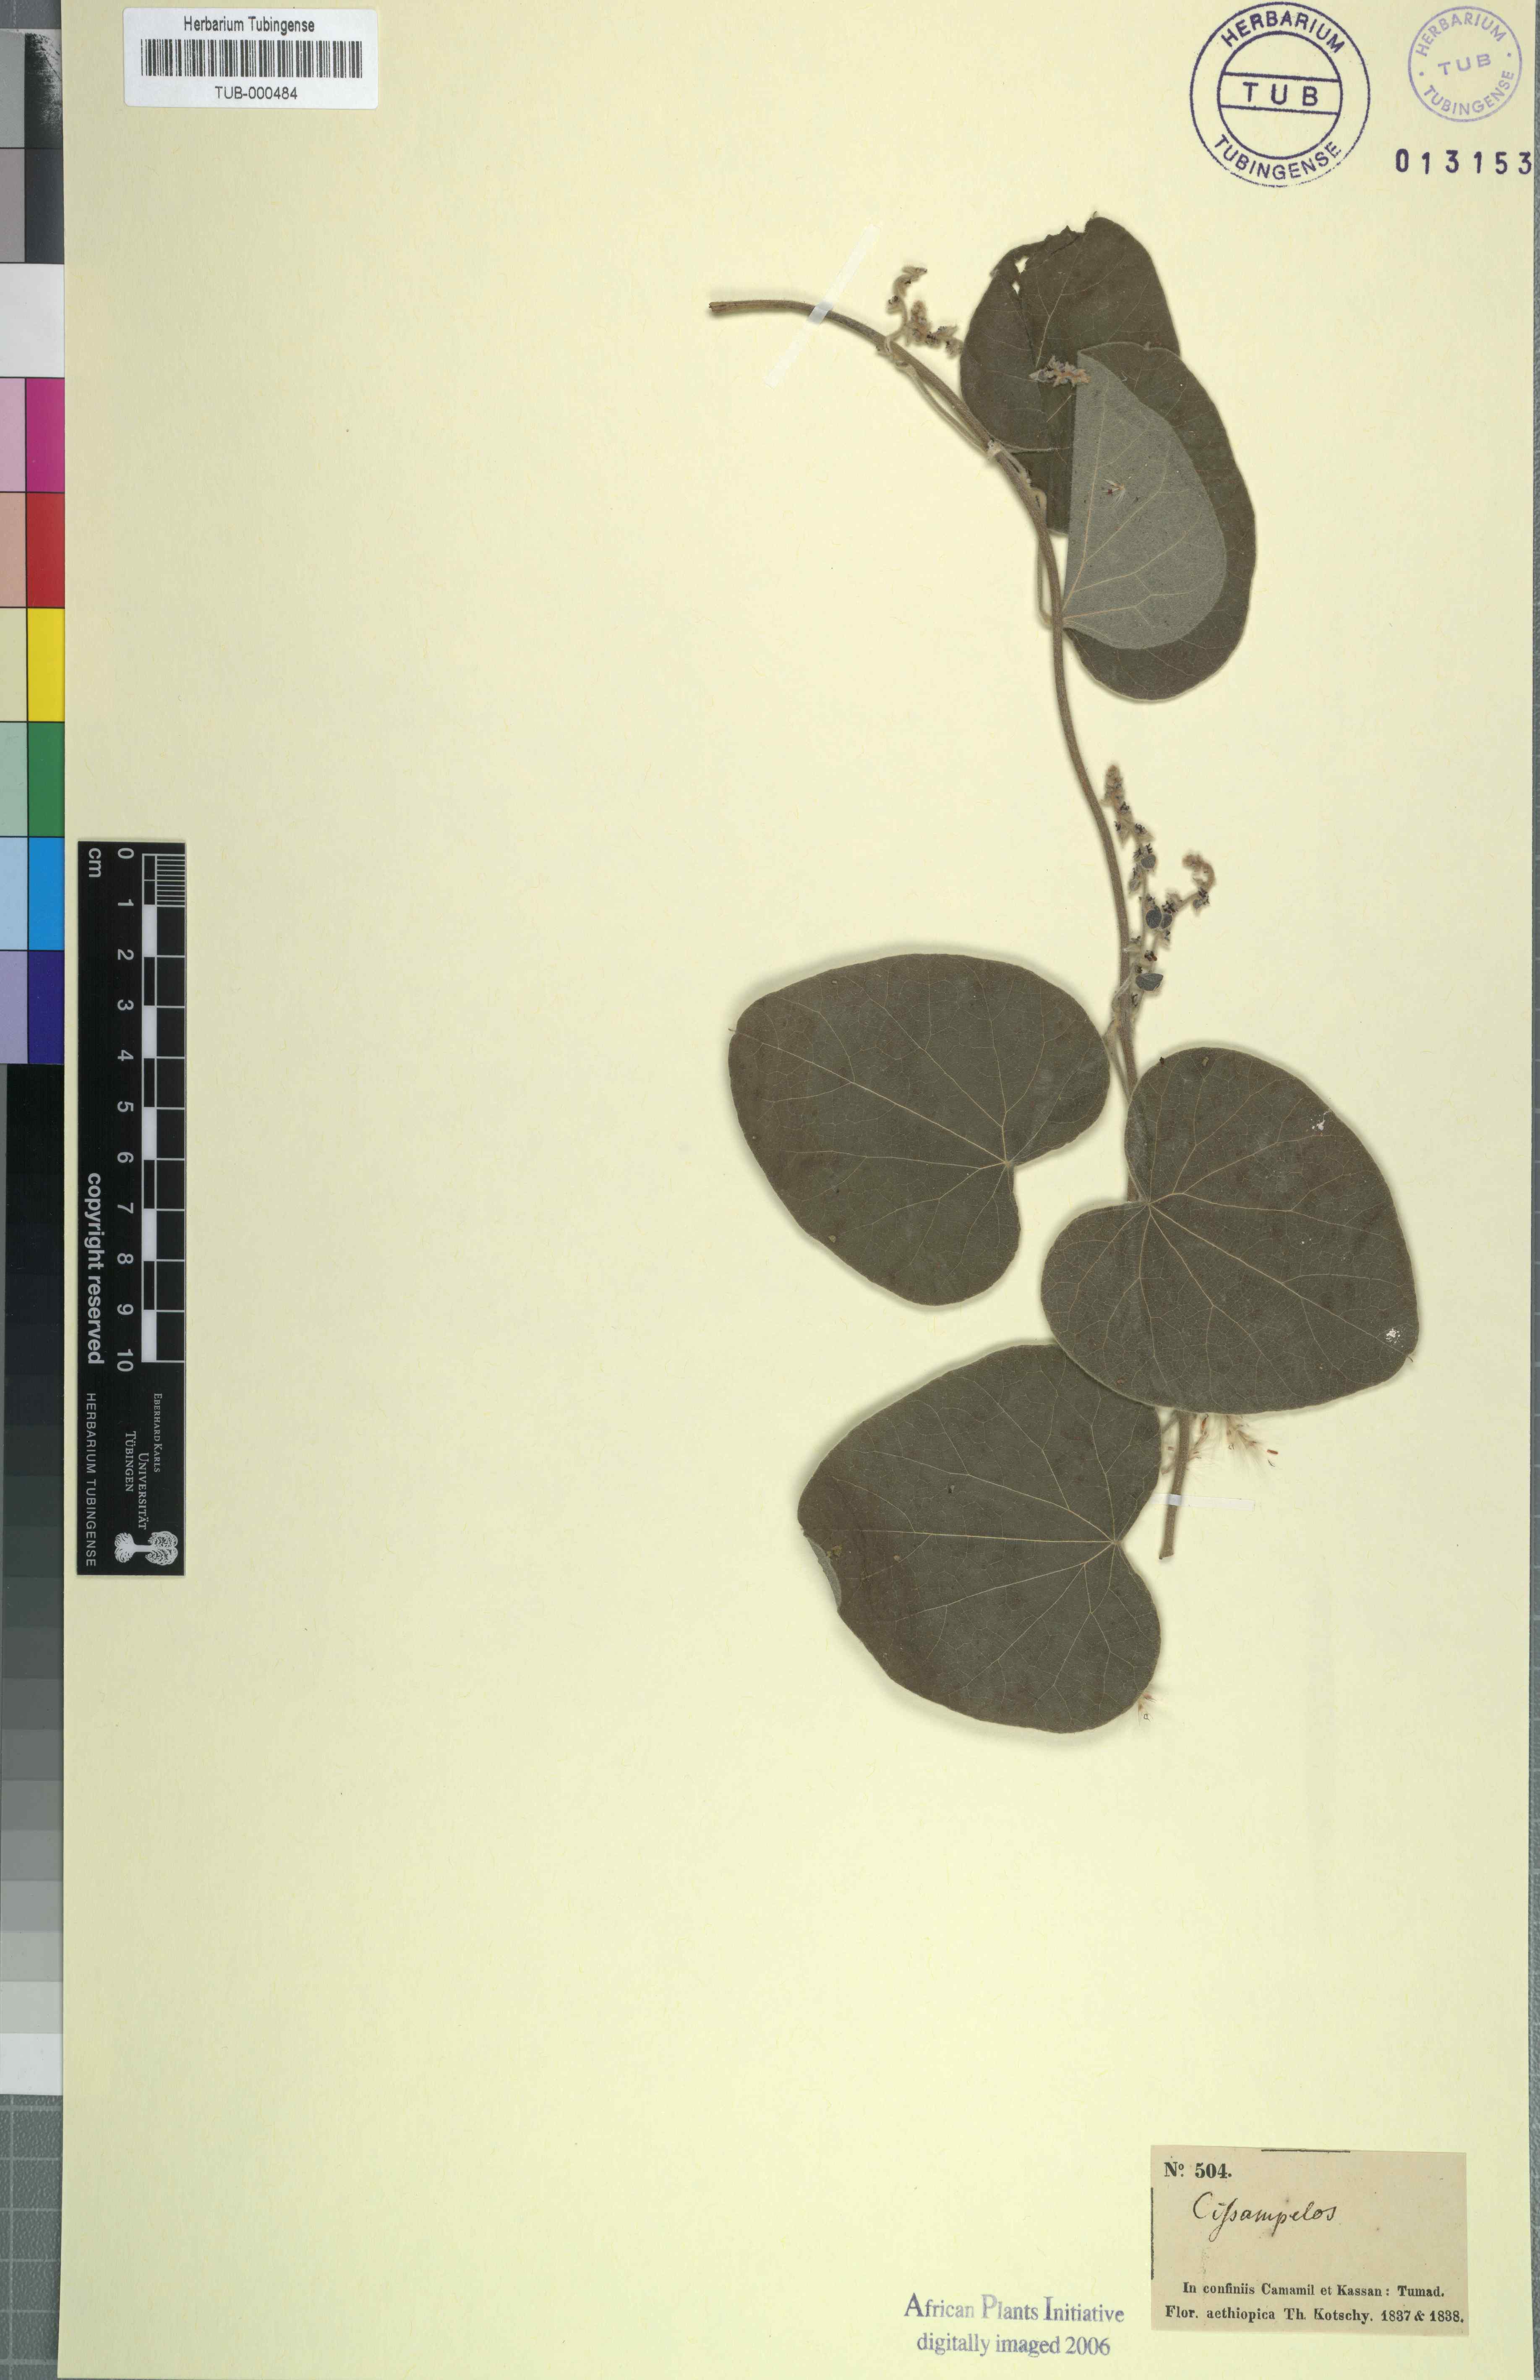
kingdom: Plantae
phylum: Tracheophyta
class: Magnoliopsida
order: Ranunculales
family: Menispermaceae
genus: Cissampelos
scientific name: Cissampelos pareira
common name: Velvetleaf
